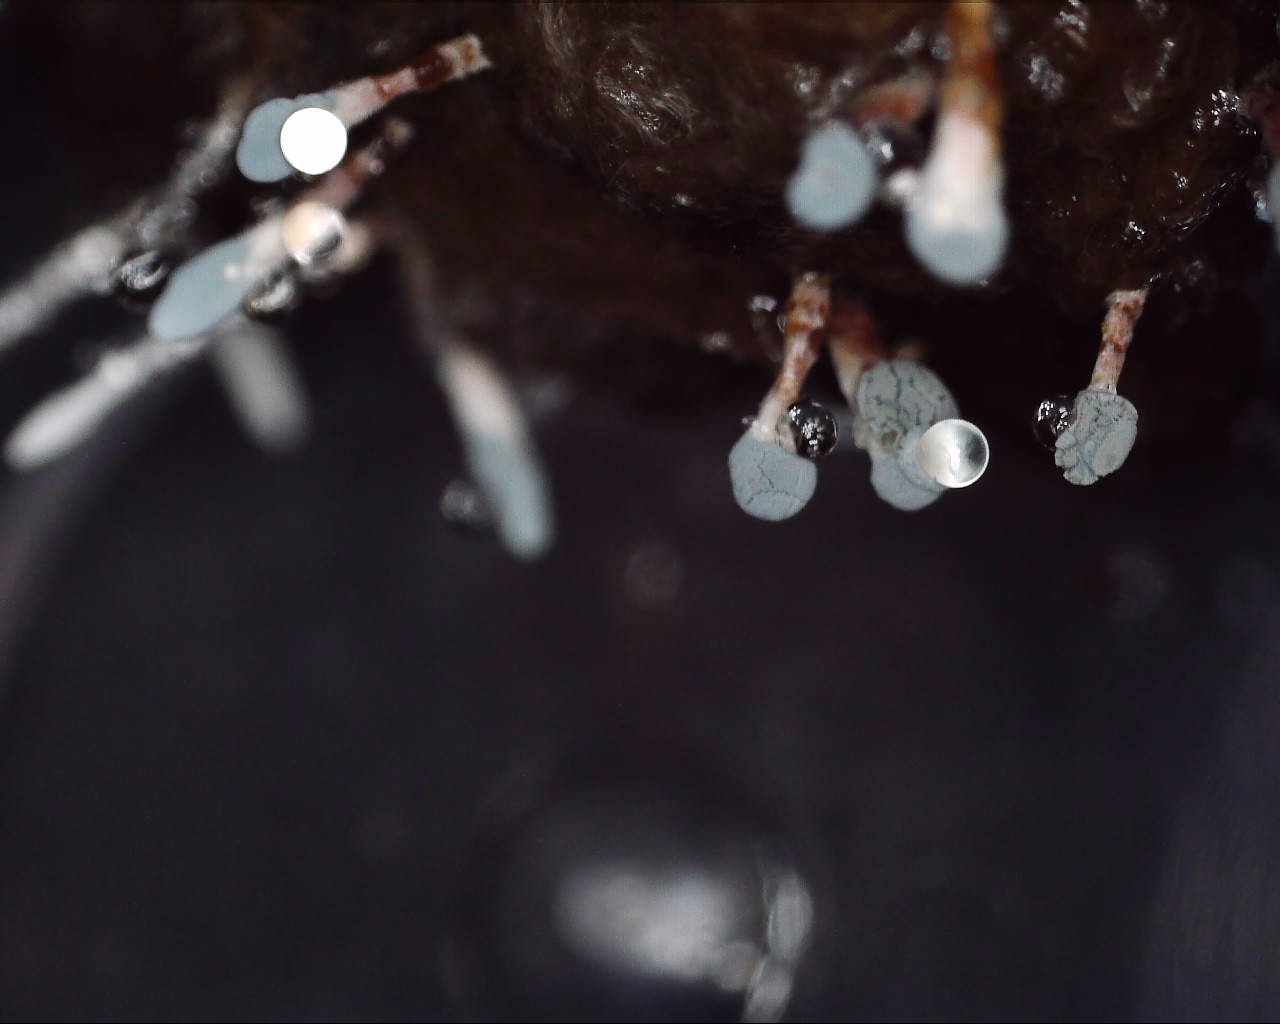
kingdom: Fungi
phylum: Ascomycota
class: Eurotiomycetes
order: Eurotiales
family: Aspergillaceae
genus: Penicillium
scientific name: Penicillium
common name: penselskimmel
